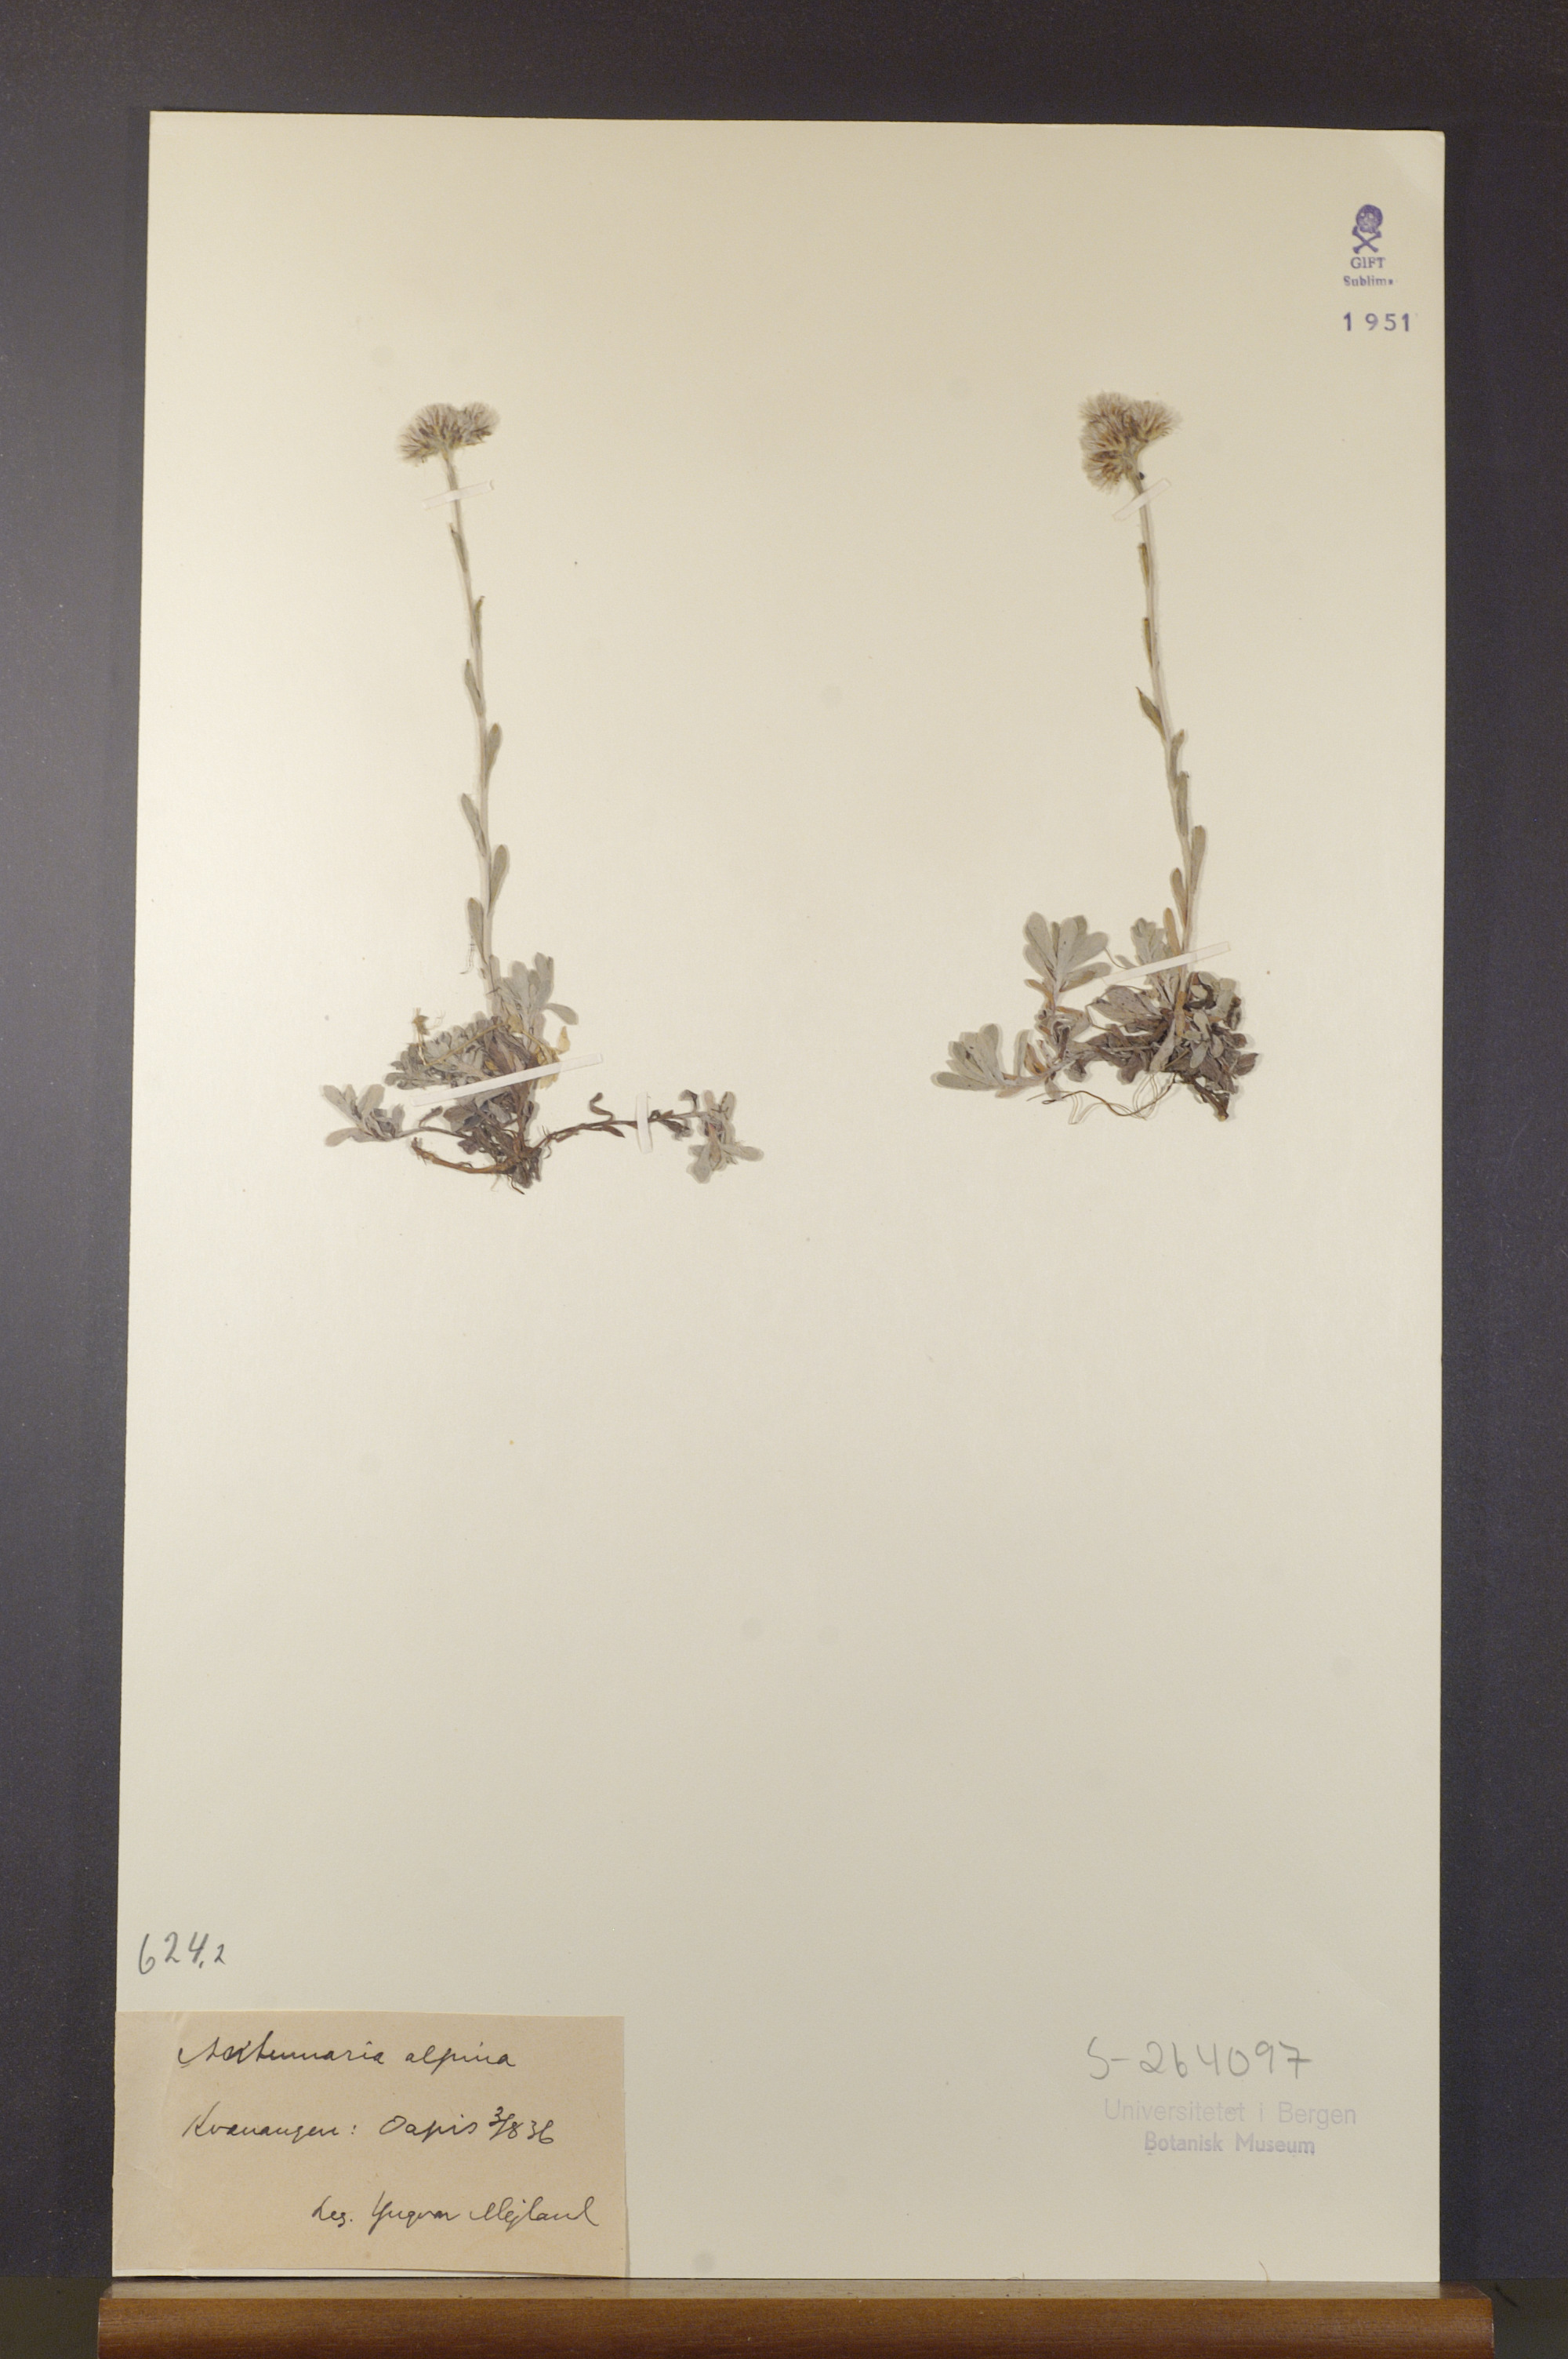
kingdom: Plantae
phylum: Tracheophyta
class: Magnoliopsida
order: Asterales
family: Asteraceae
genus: Antennaria
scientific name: Antennaria alpina
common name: Alpine pussytoes
